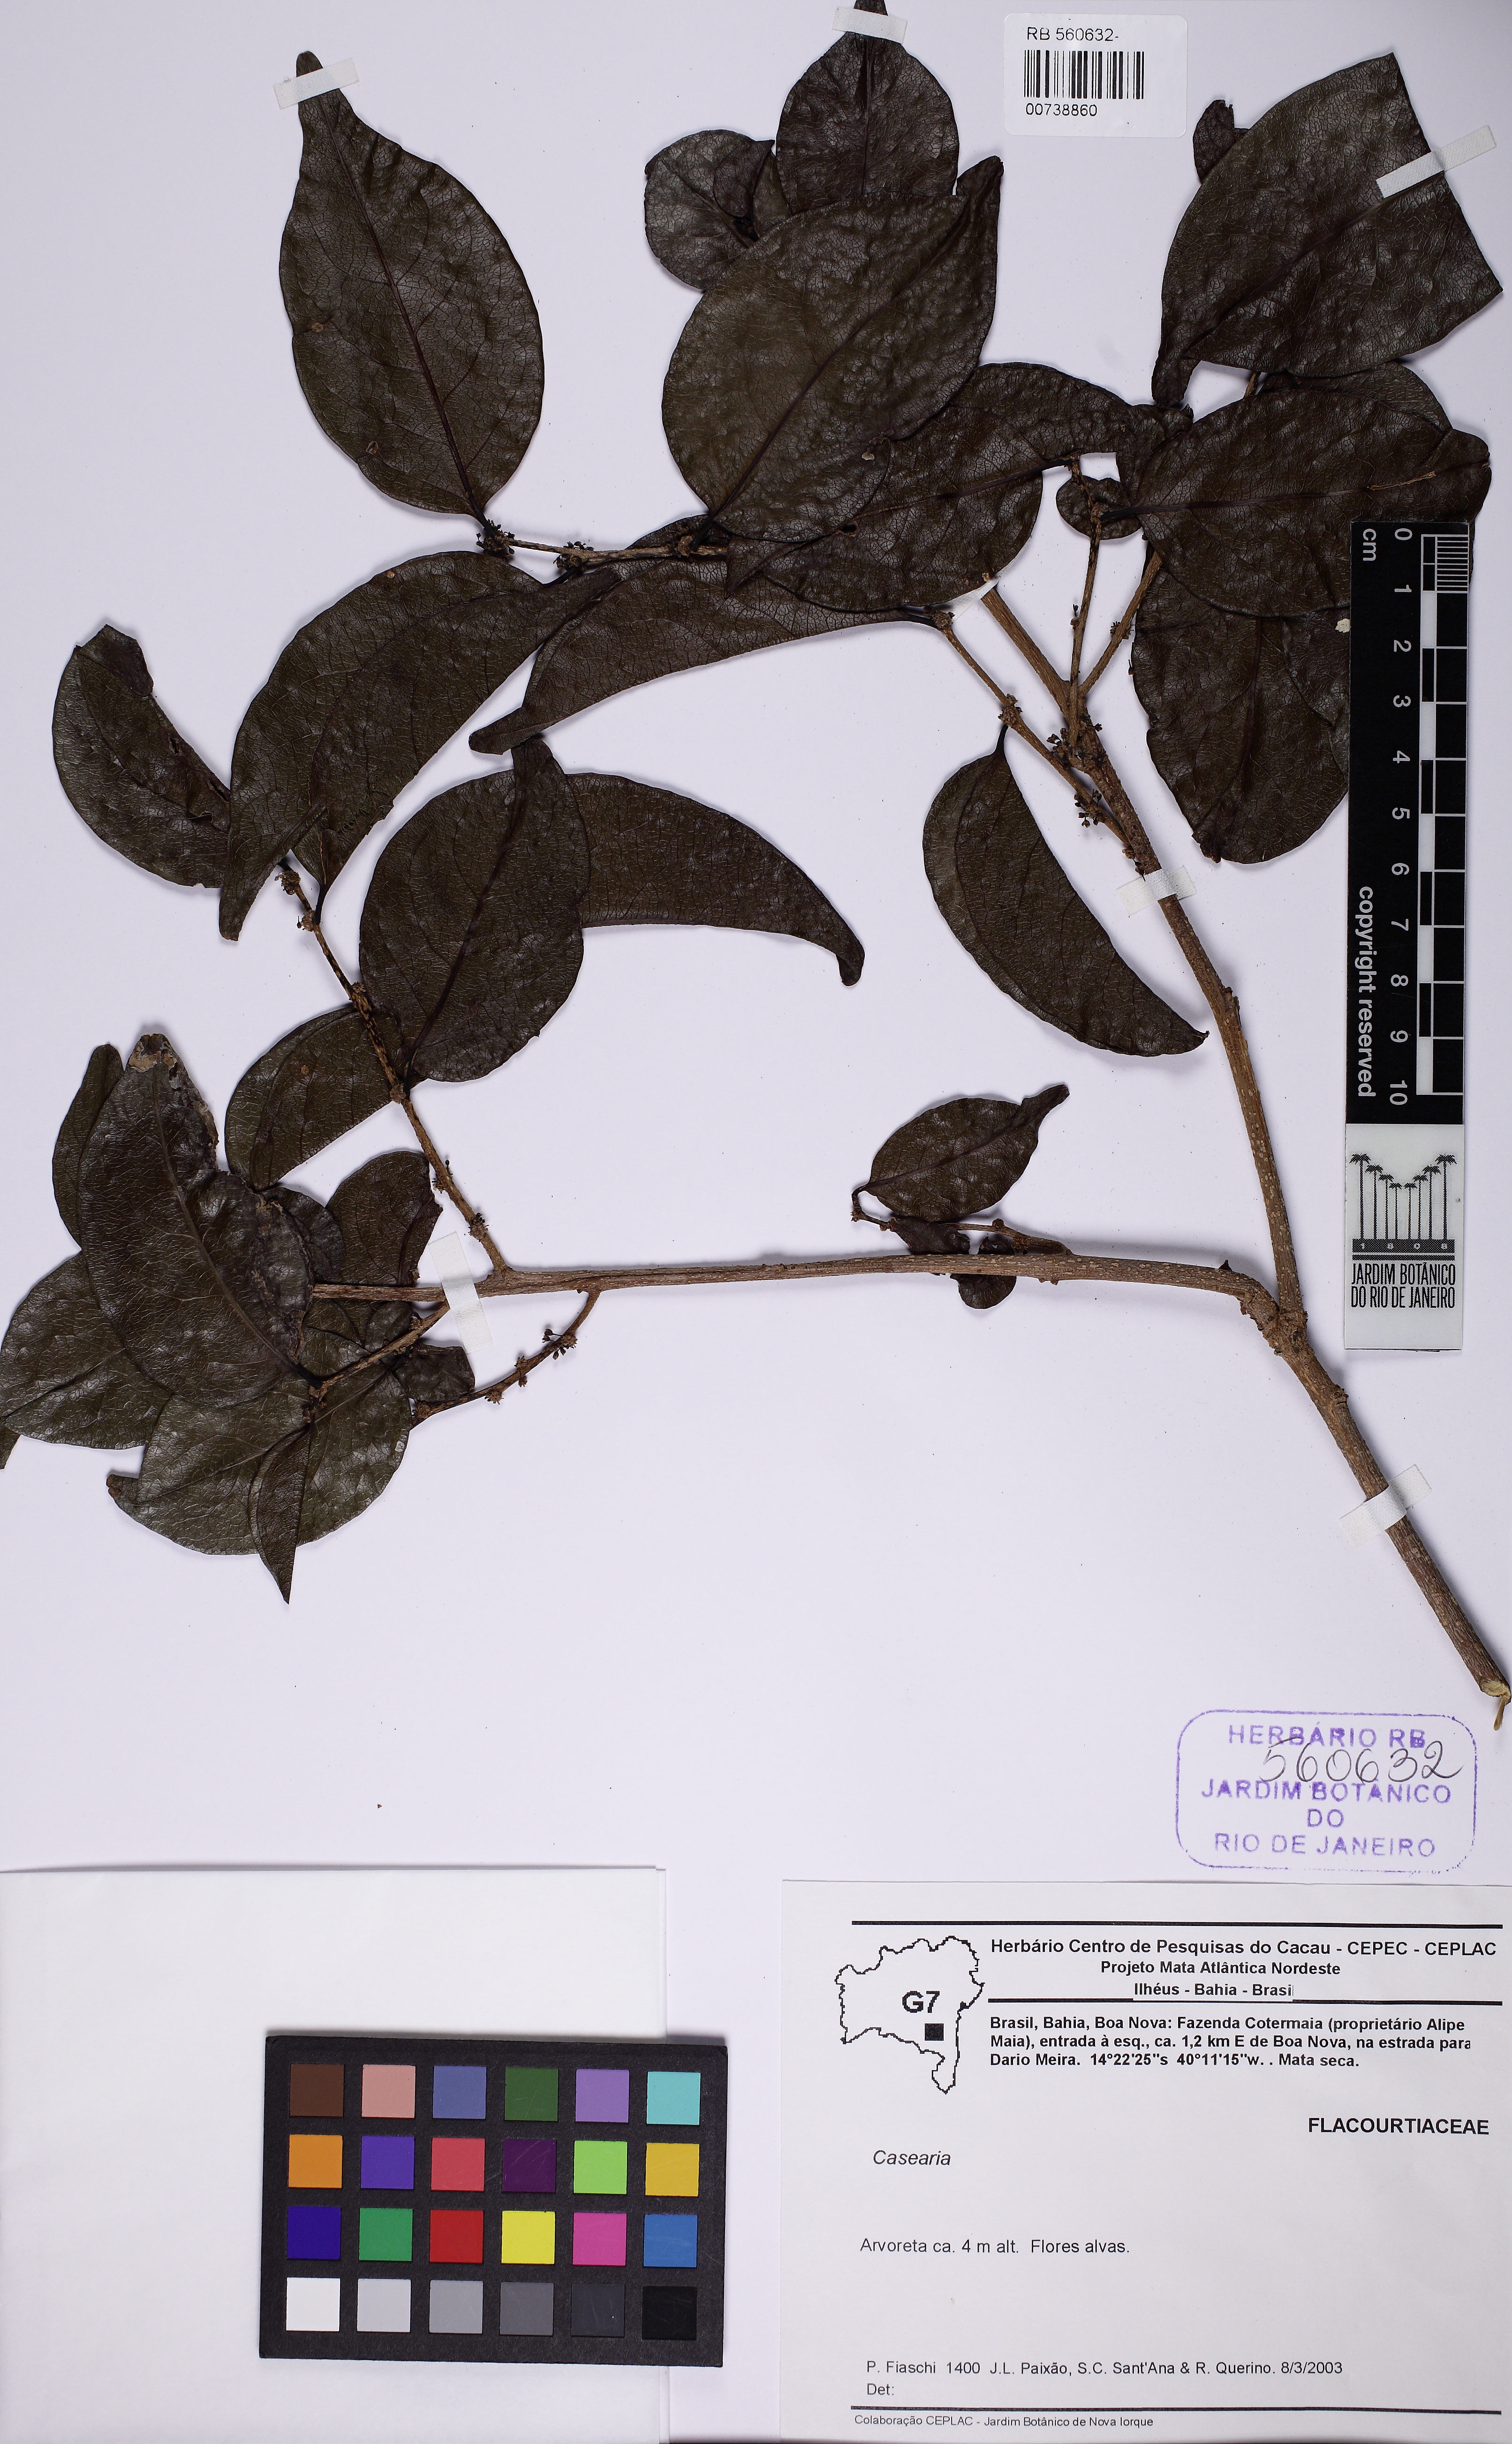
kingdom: Plantae
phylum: Tracheophyta
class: Magnoliopsida
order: Malpighiales
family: Salicaceae
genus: Casearia
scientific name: Casearia selloana
